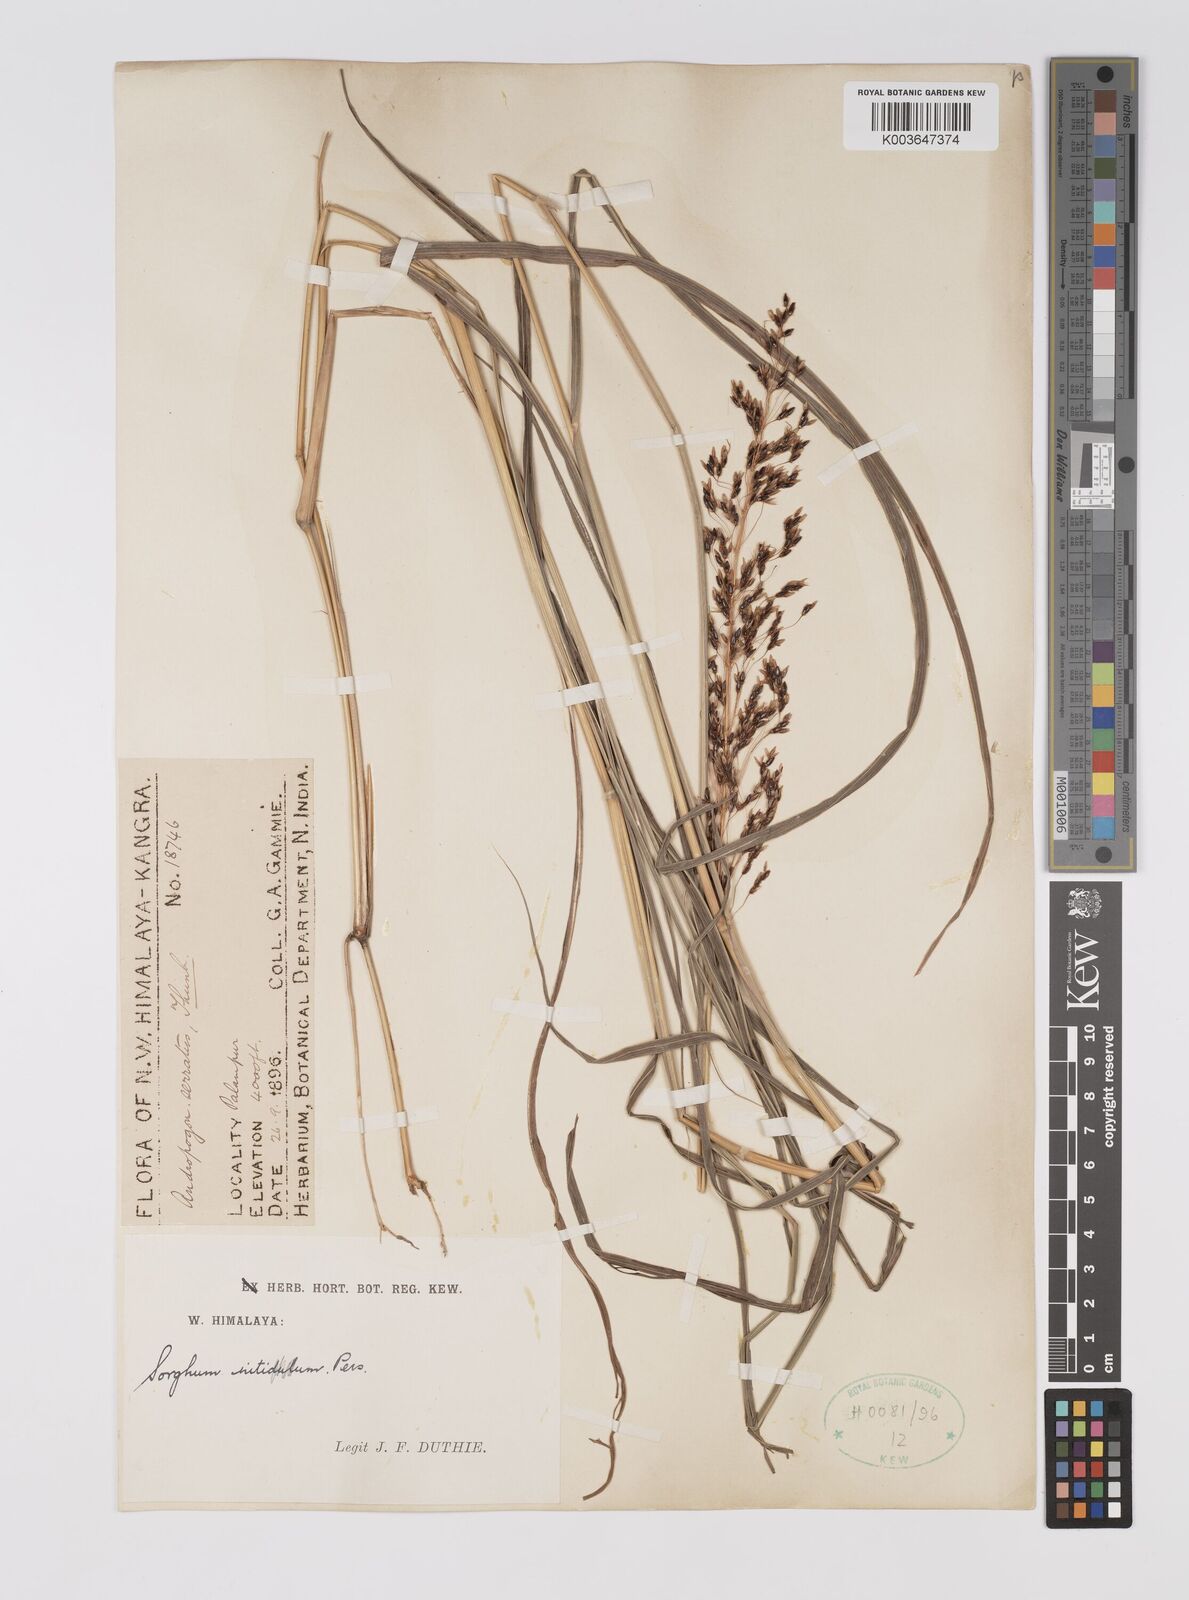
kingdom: Plantae
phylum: Tracheophyta
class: Liliopsida
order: Poales
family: Poaceae
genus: Sorghum
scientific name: Sorghum nitidum
